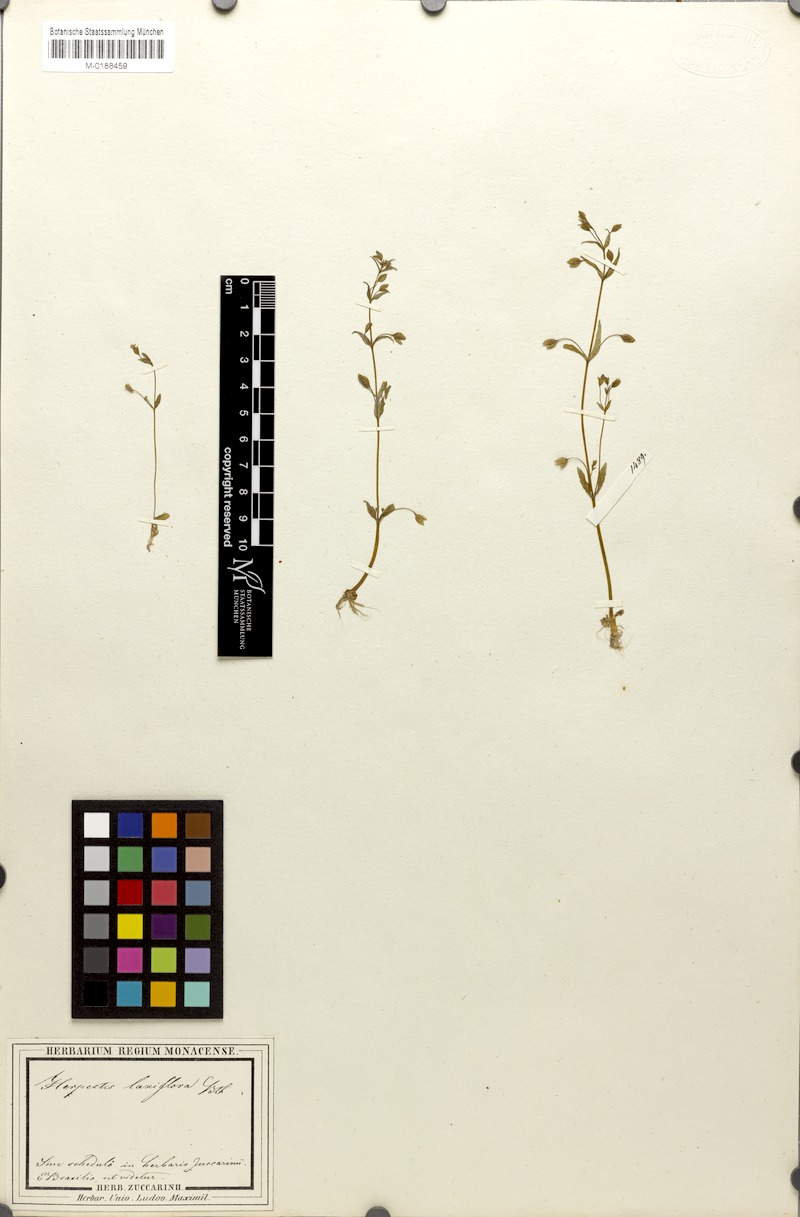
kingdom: Plantae
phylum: Tracheophyta
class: Magnoliopsida
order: Lamiales
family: Plantaginaceae
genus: Bacopa
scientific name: Bacopa laxiflora
